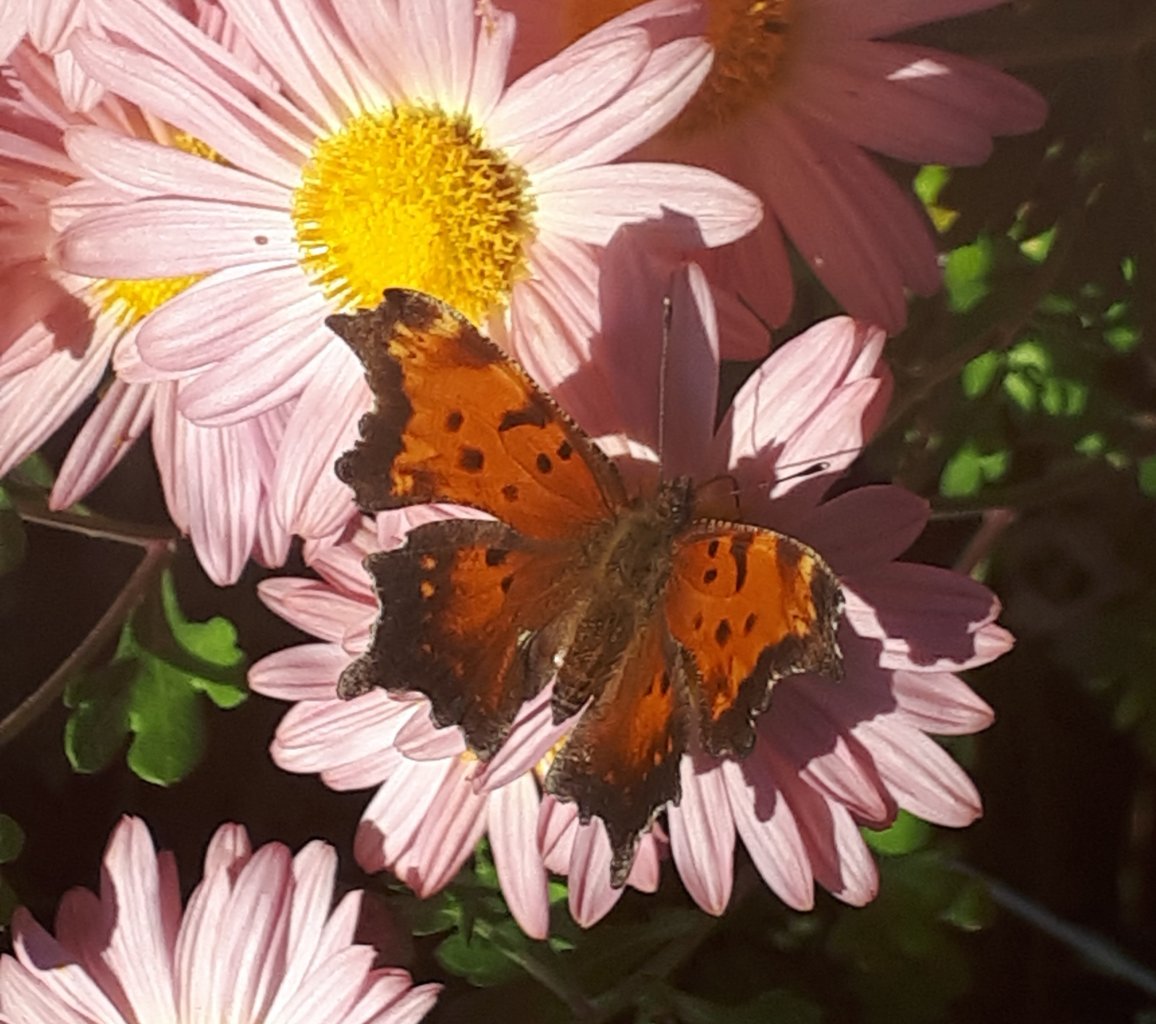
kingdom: Animalia
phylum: Arthropoda
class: Insecta
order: Lepidoptera
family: Nymphalidae
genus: Polygonia
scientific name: Polygonia progne
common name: Gray Comma
